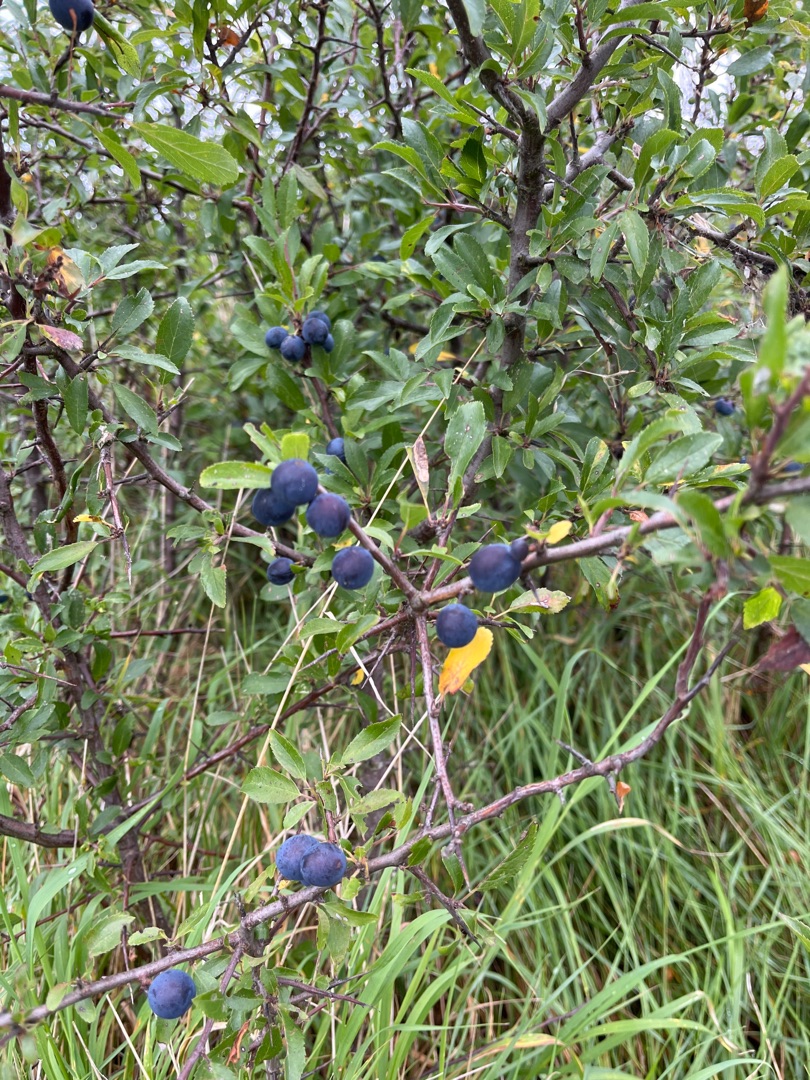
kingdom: Plantae
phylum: Tracheophyta
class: Magnoliopsida
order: Rosales
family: Rosaceae
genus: Prunus
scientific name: Prunus spinosa
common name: Slåen
